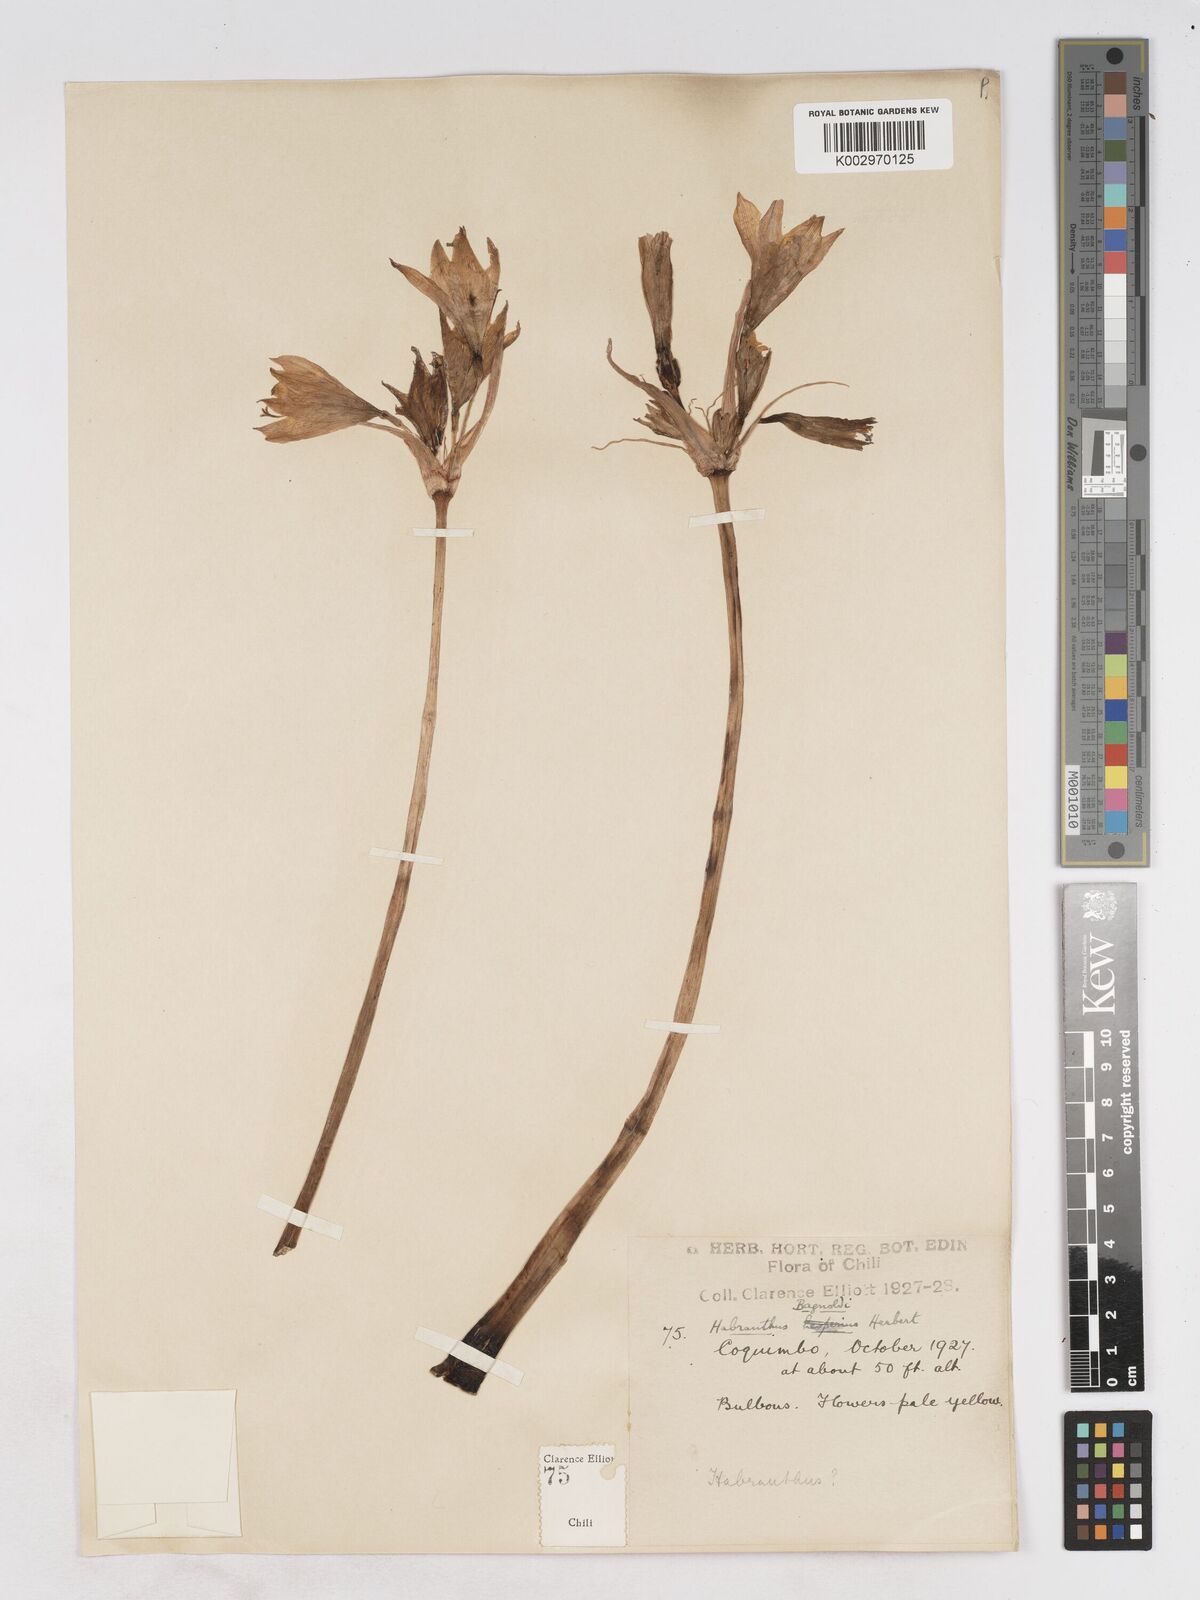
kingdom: Plantae
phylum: Tracheophyta
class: Liliopsida
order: Asparagales
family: Amaryllidaceae
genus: Zephyranthes
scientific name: Zephyranthes bagnoldii
